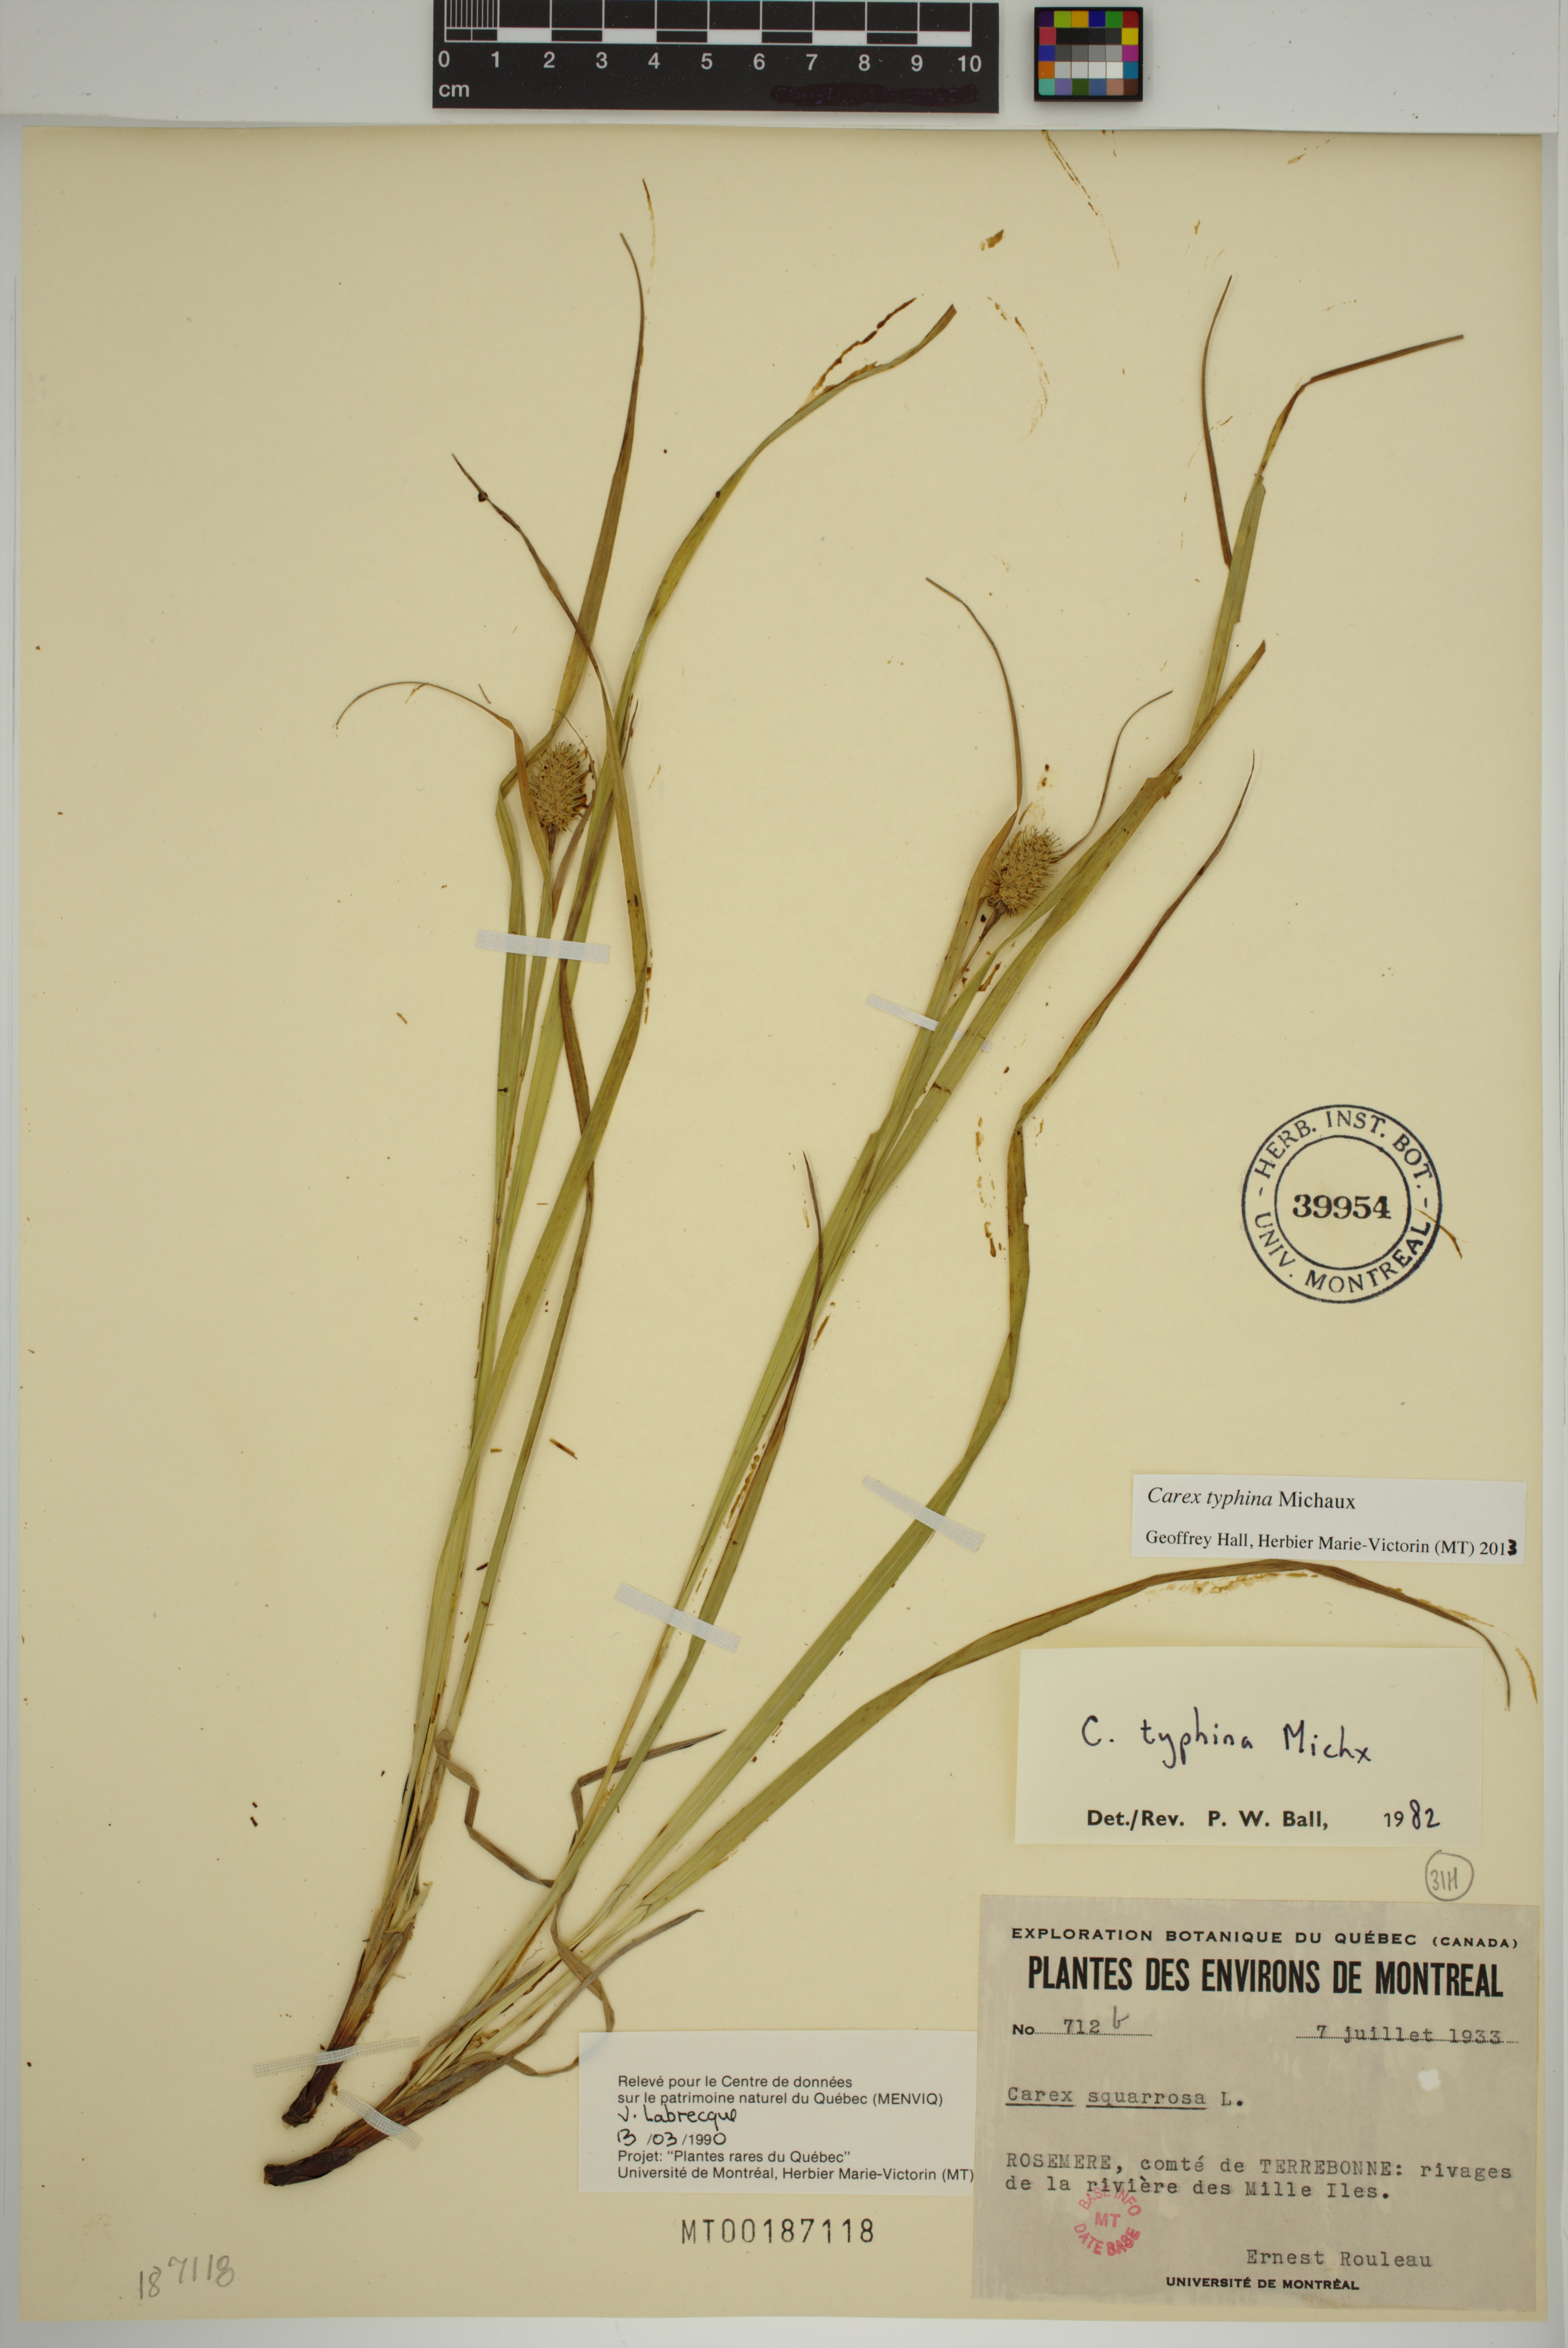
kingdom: Plantae
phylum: Tracheophyta
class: Liliopsida
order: Poales
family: Cyperaceae
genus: Carex
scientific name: Carex typhina
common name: Cattail sedge
